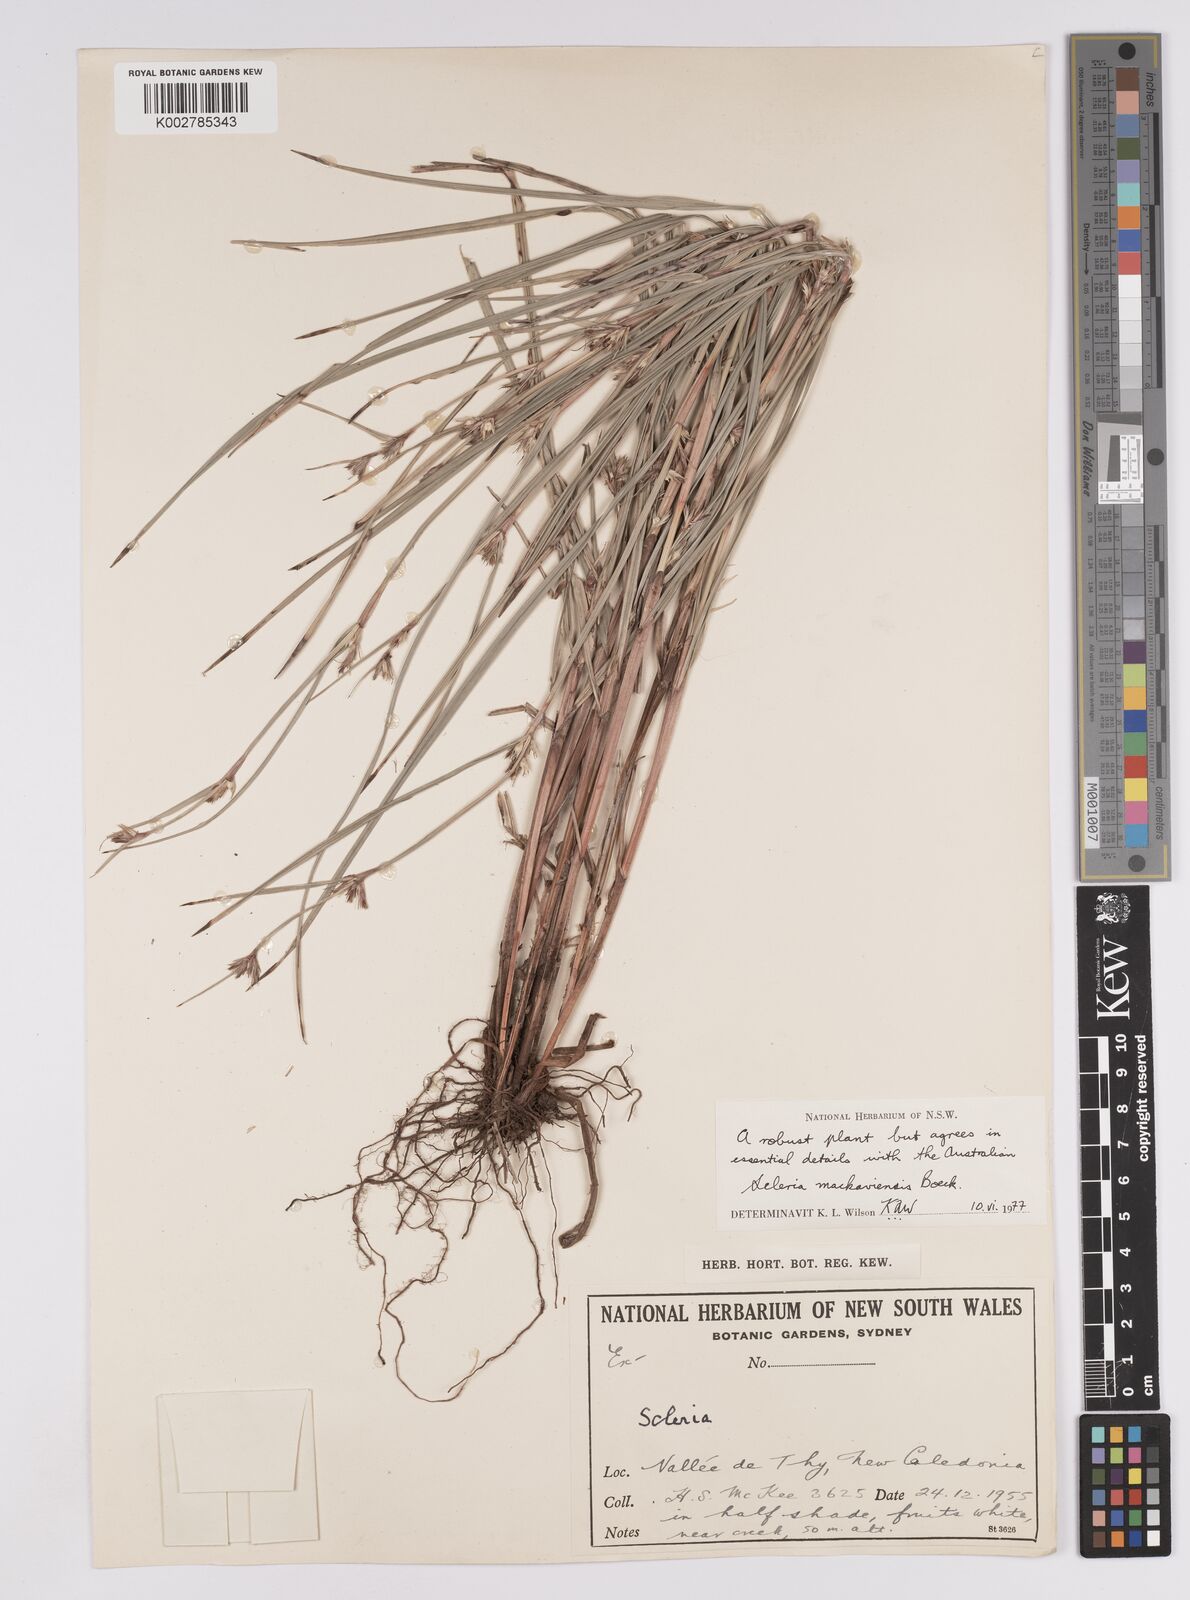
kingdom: Plantae
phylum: Tracheophyta
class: Liliopsida
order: Poales
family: Cyperaceae
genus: Scleria
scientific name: Scleria mackaviensis
